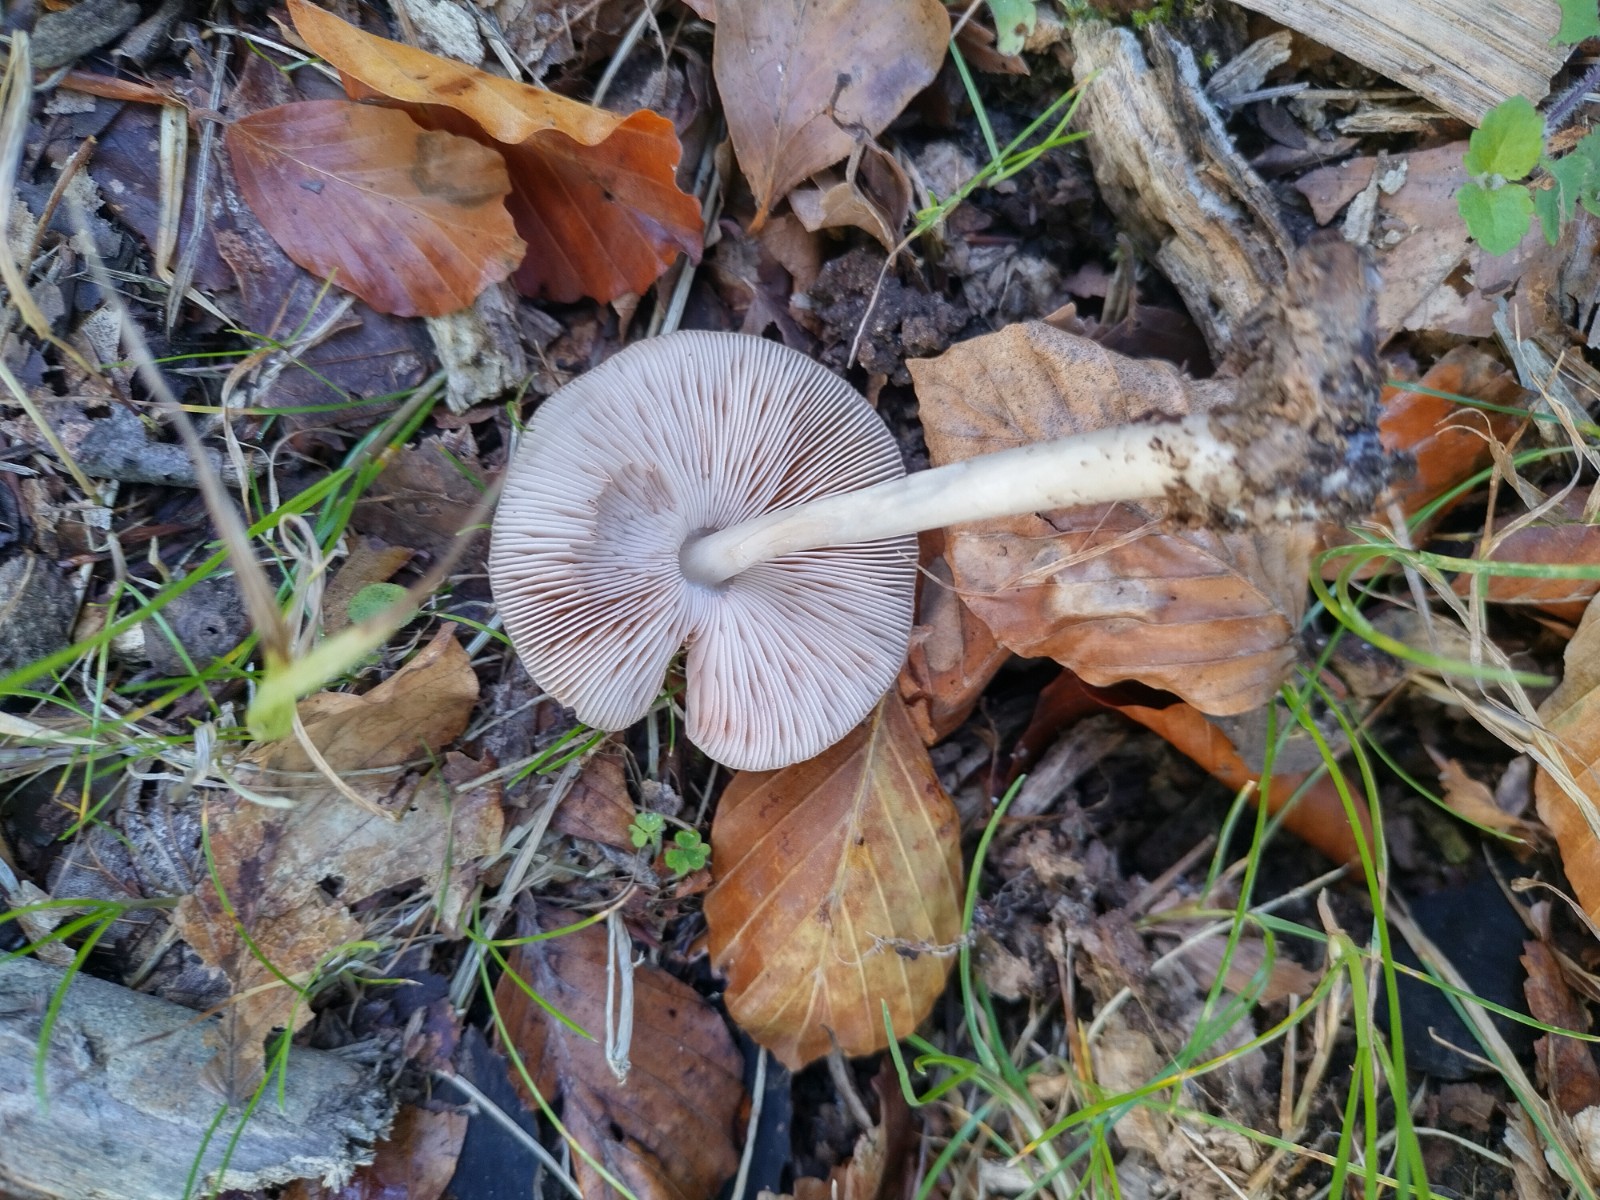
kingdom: Fungi
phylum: Basidiomycota
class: Agaricomycetes
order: Agaricales
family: Pluteaceae
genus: Pluteus
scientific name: Pluteus salicinus
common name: stiv skærmhat
